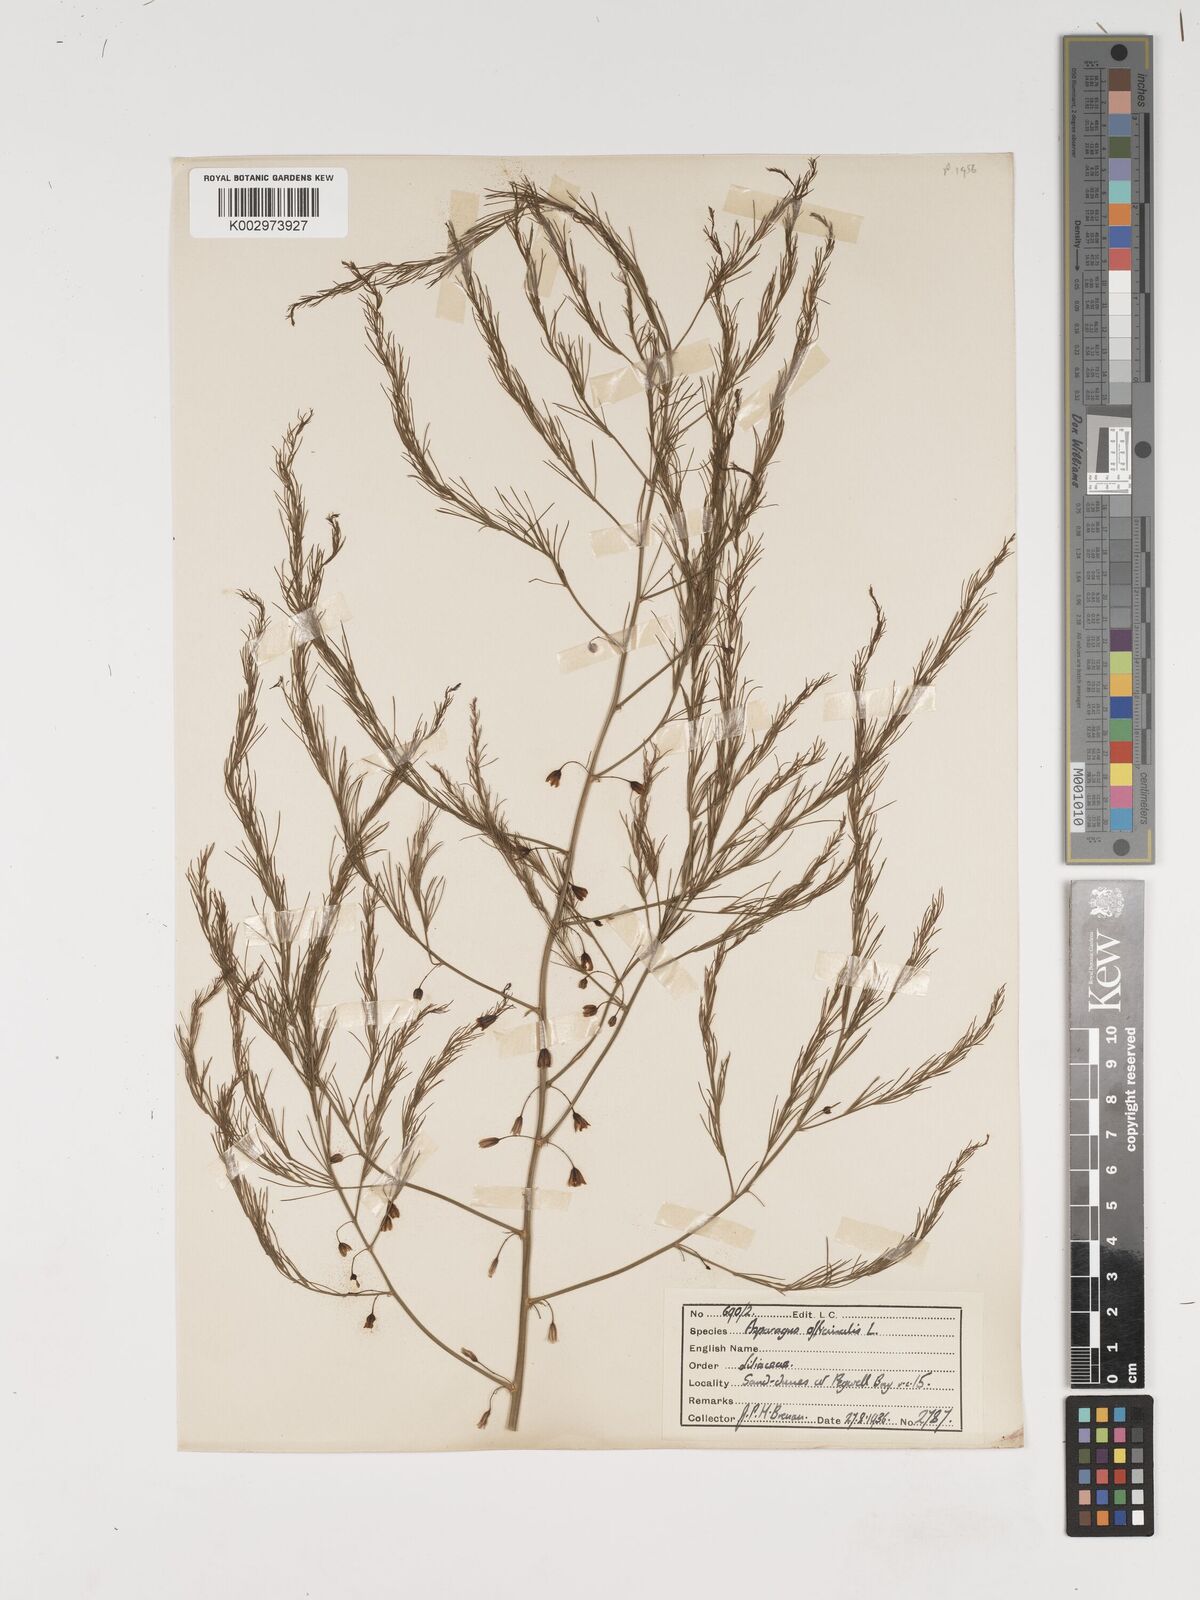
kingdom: Plantae
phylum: Tracheophyta
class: Liliopsida
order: Asparagales
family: Asparagaceae
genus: Asparagus
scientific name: Asparagus officinalis
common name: Garden asparagus
